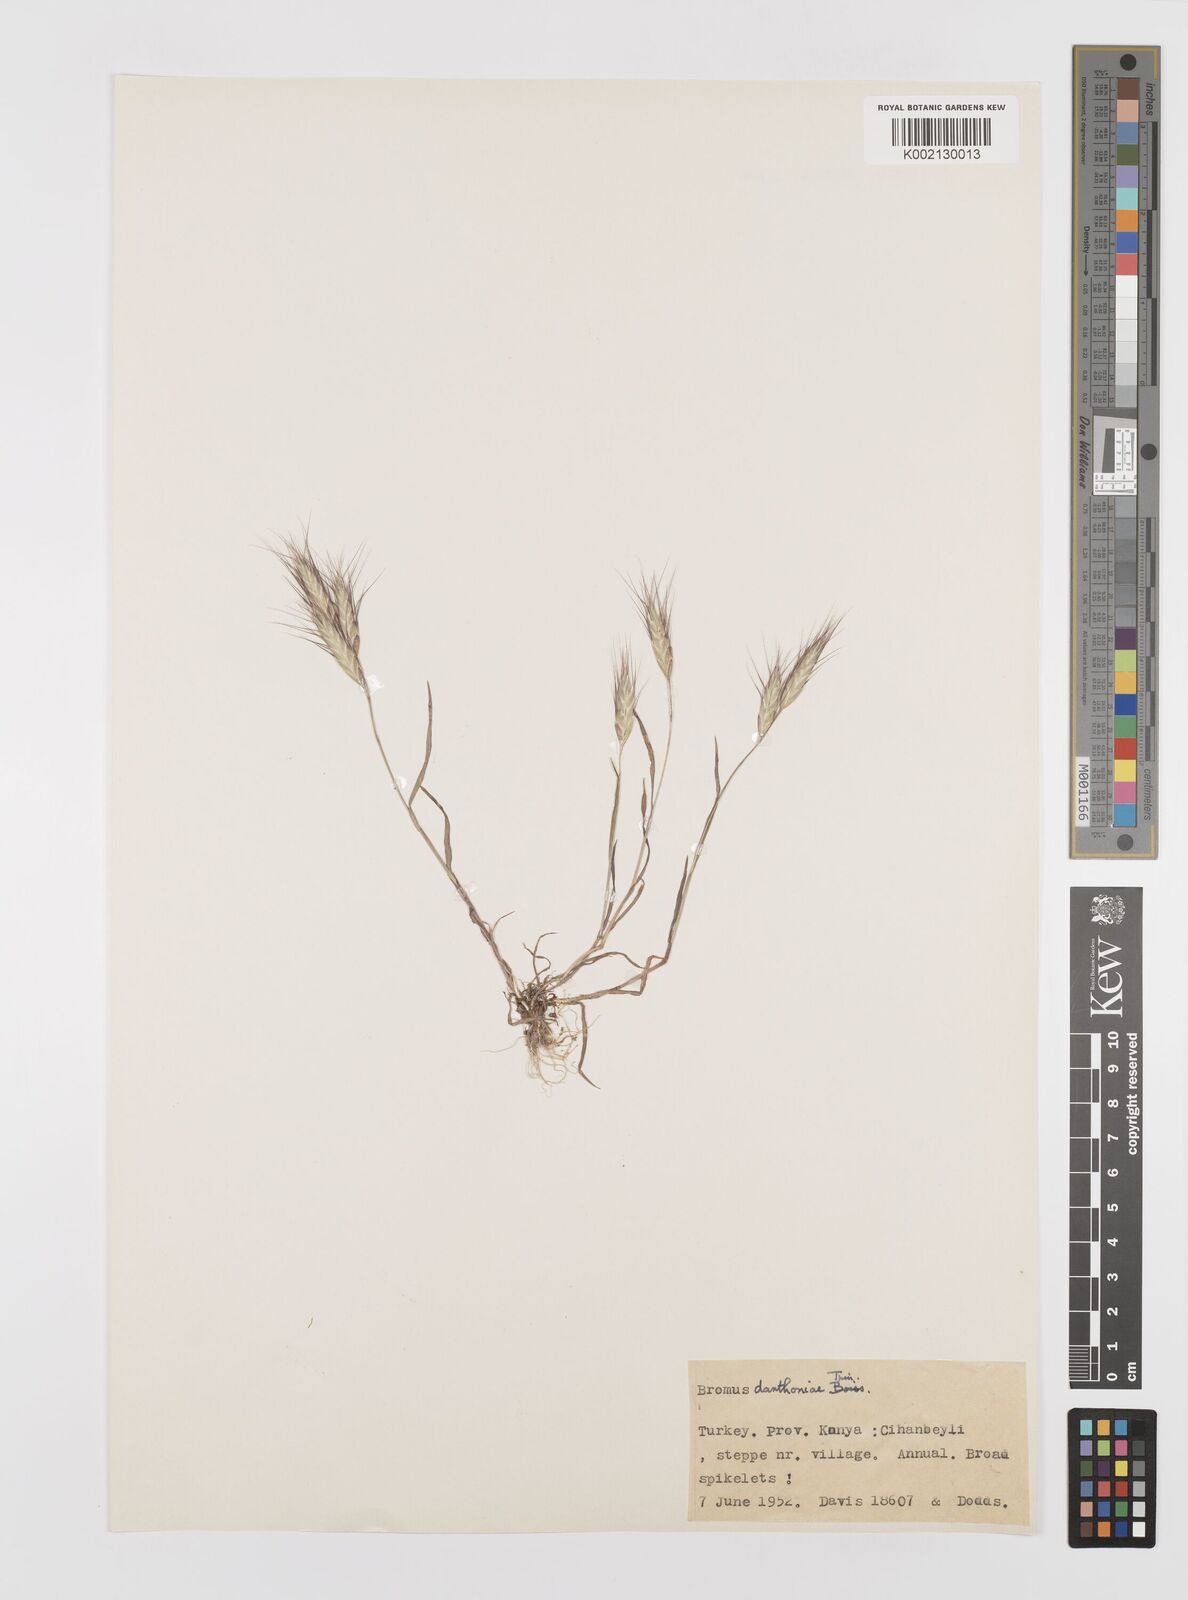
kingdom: Plantae
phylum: Tracheophyta
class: Liliopsida
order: Poales
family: Poaceae
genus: Bromus
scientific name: Bromus danthoniae
